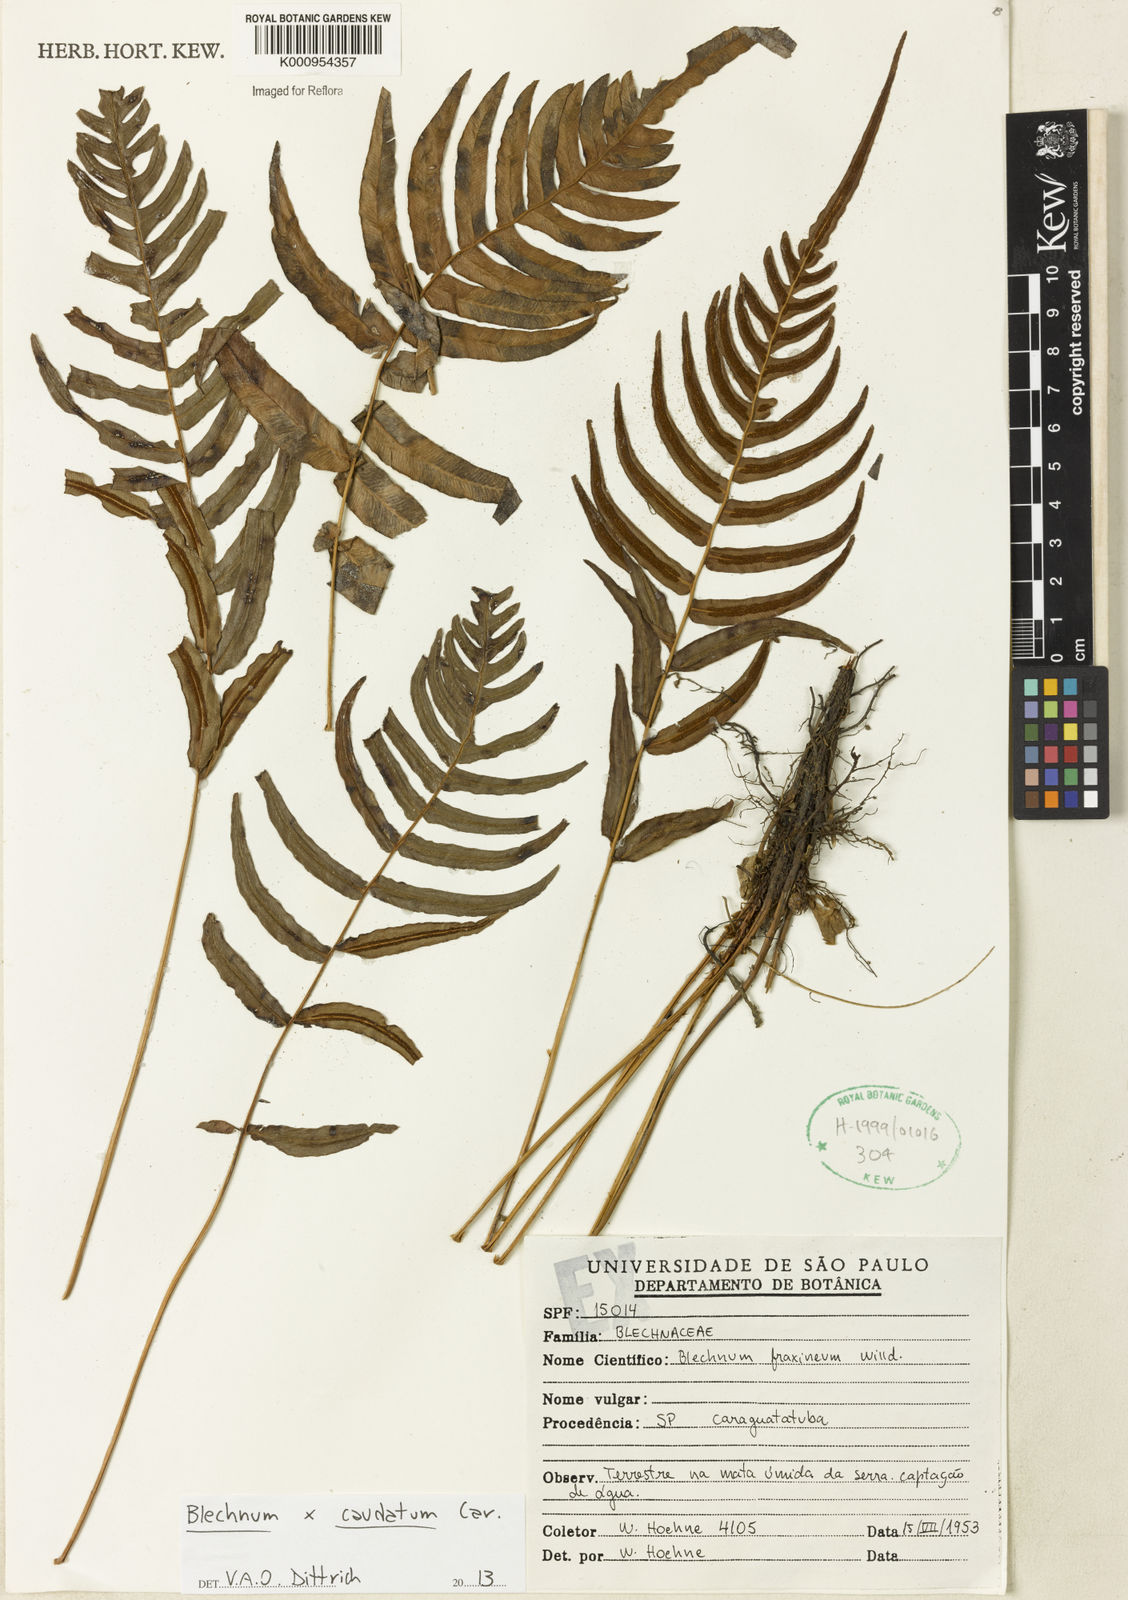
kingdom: Plantae
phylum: Tracheophyta
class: Polypodiopsida
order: Polypodiales
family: Blechnaceae
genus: Blechnum
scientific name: Blechnum gracile
